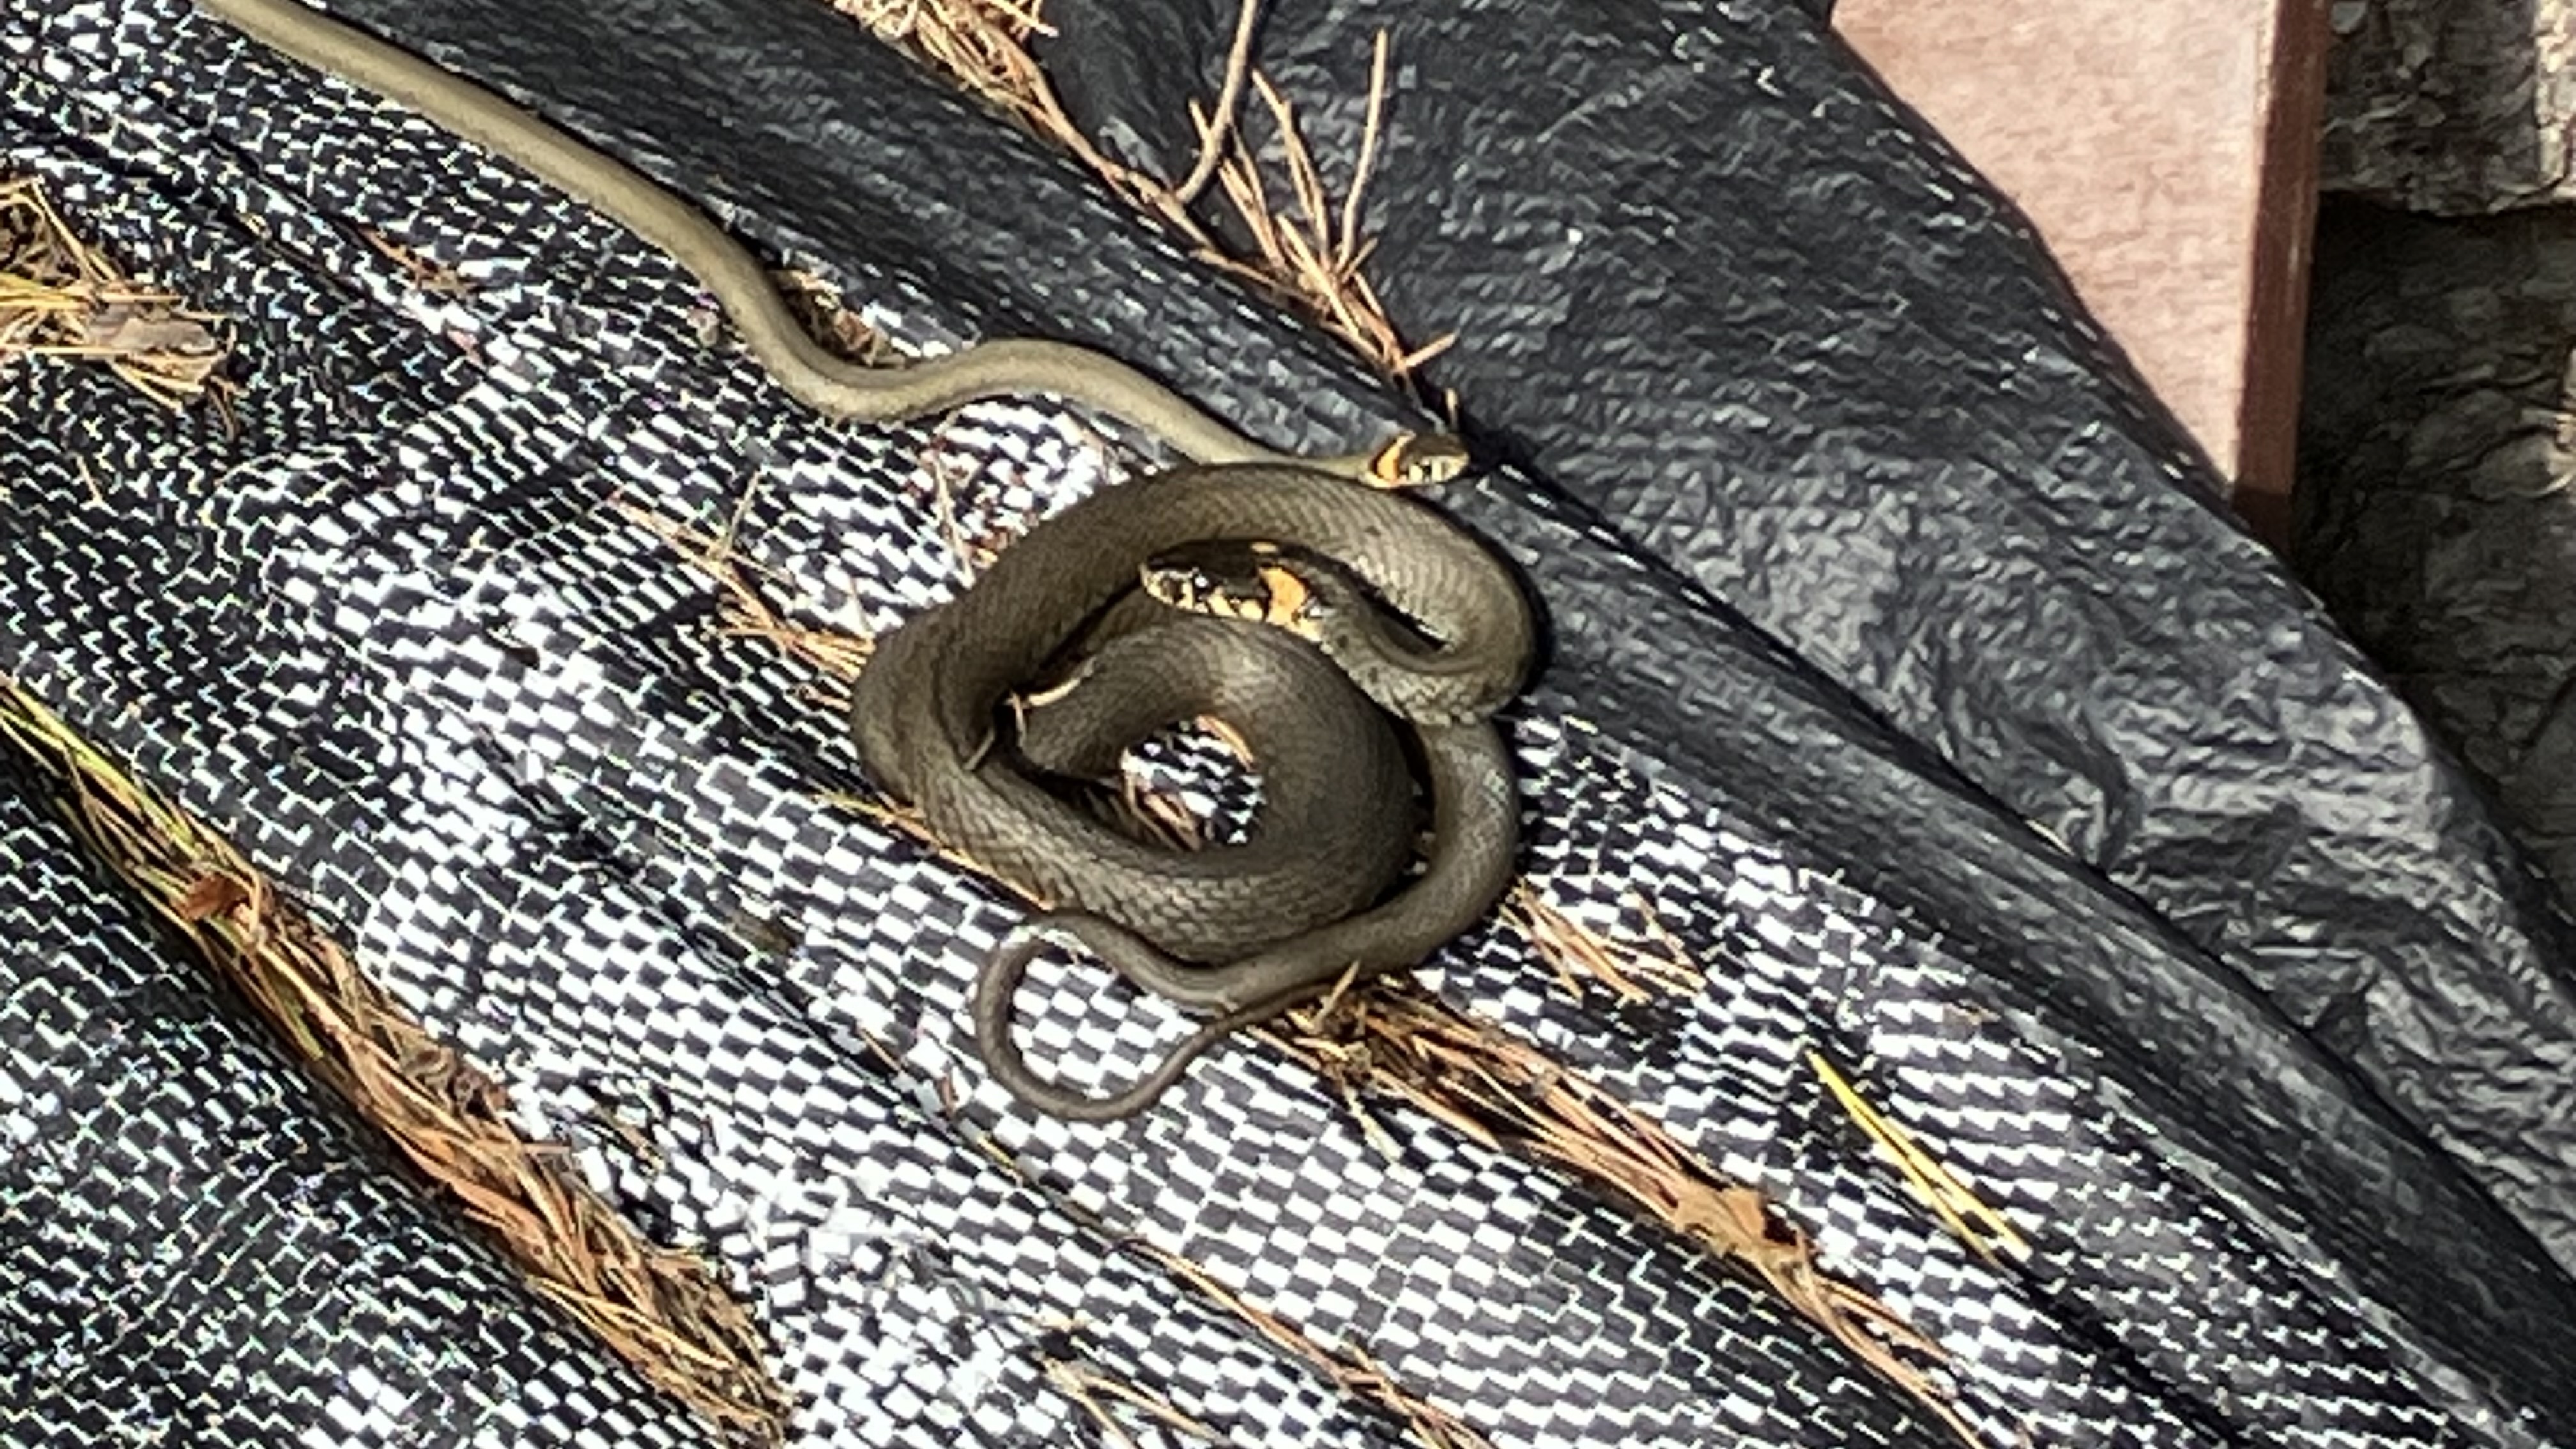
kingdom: Animalia
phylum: Chordata
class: Squamata
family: Colubridae
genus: Natrix
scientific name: Natrix natrix
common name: Grass snake
